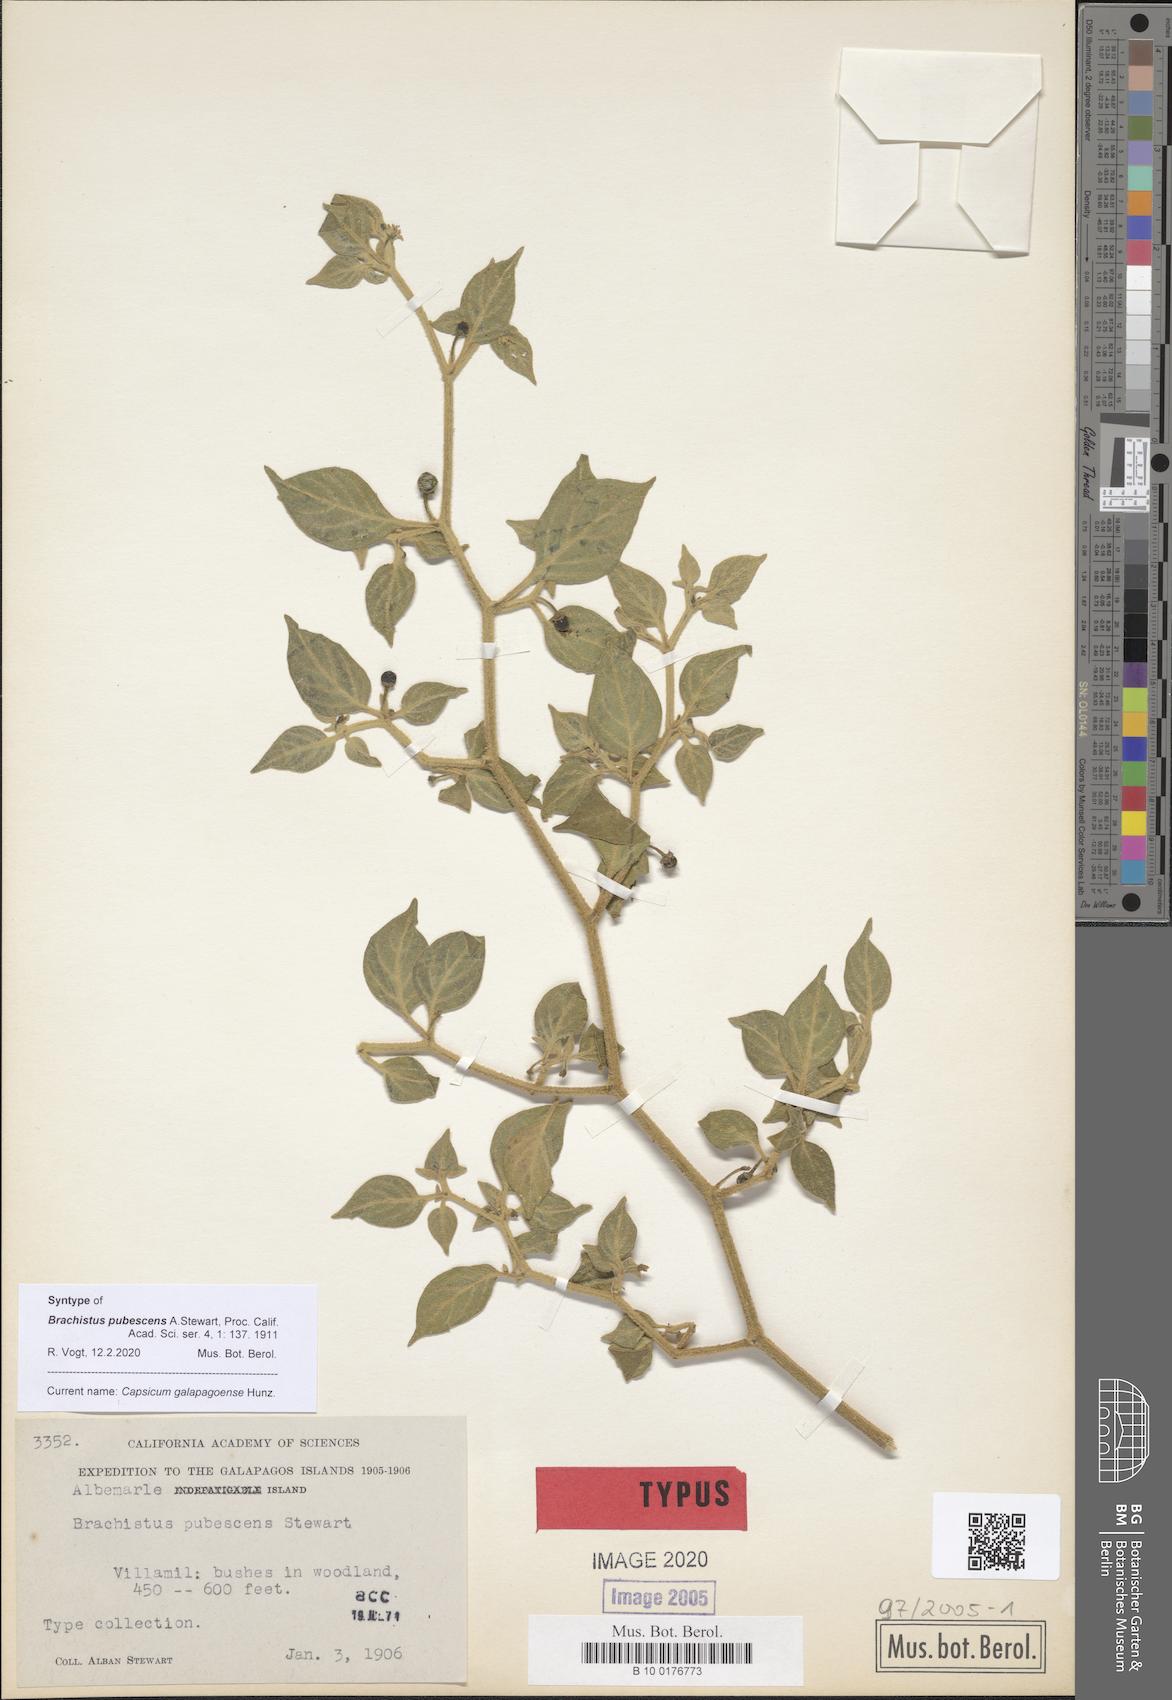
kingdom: Plantae
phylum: Tracheophyta
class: Magnoliopsida
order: Solanales
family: Solanaceae
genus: Capsicum
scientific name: Capsicum galapagoense
